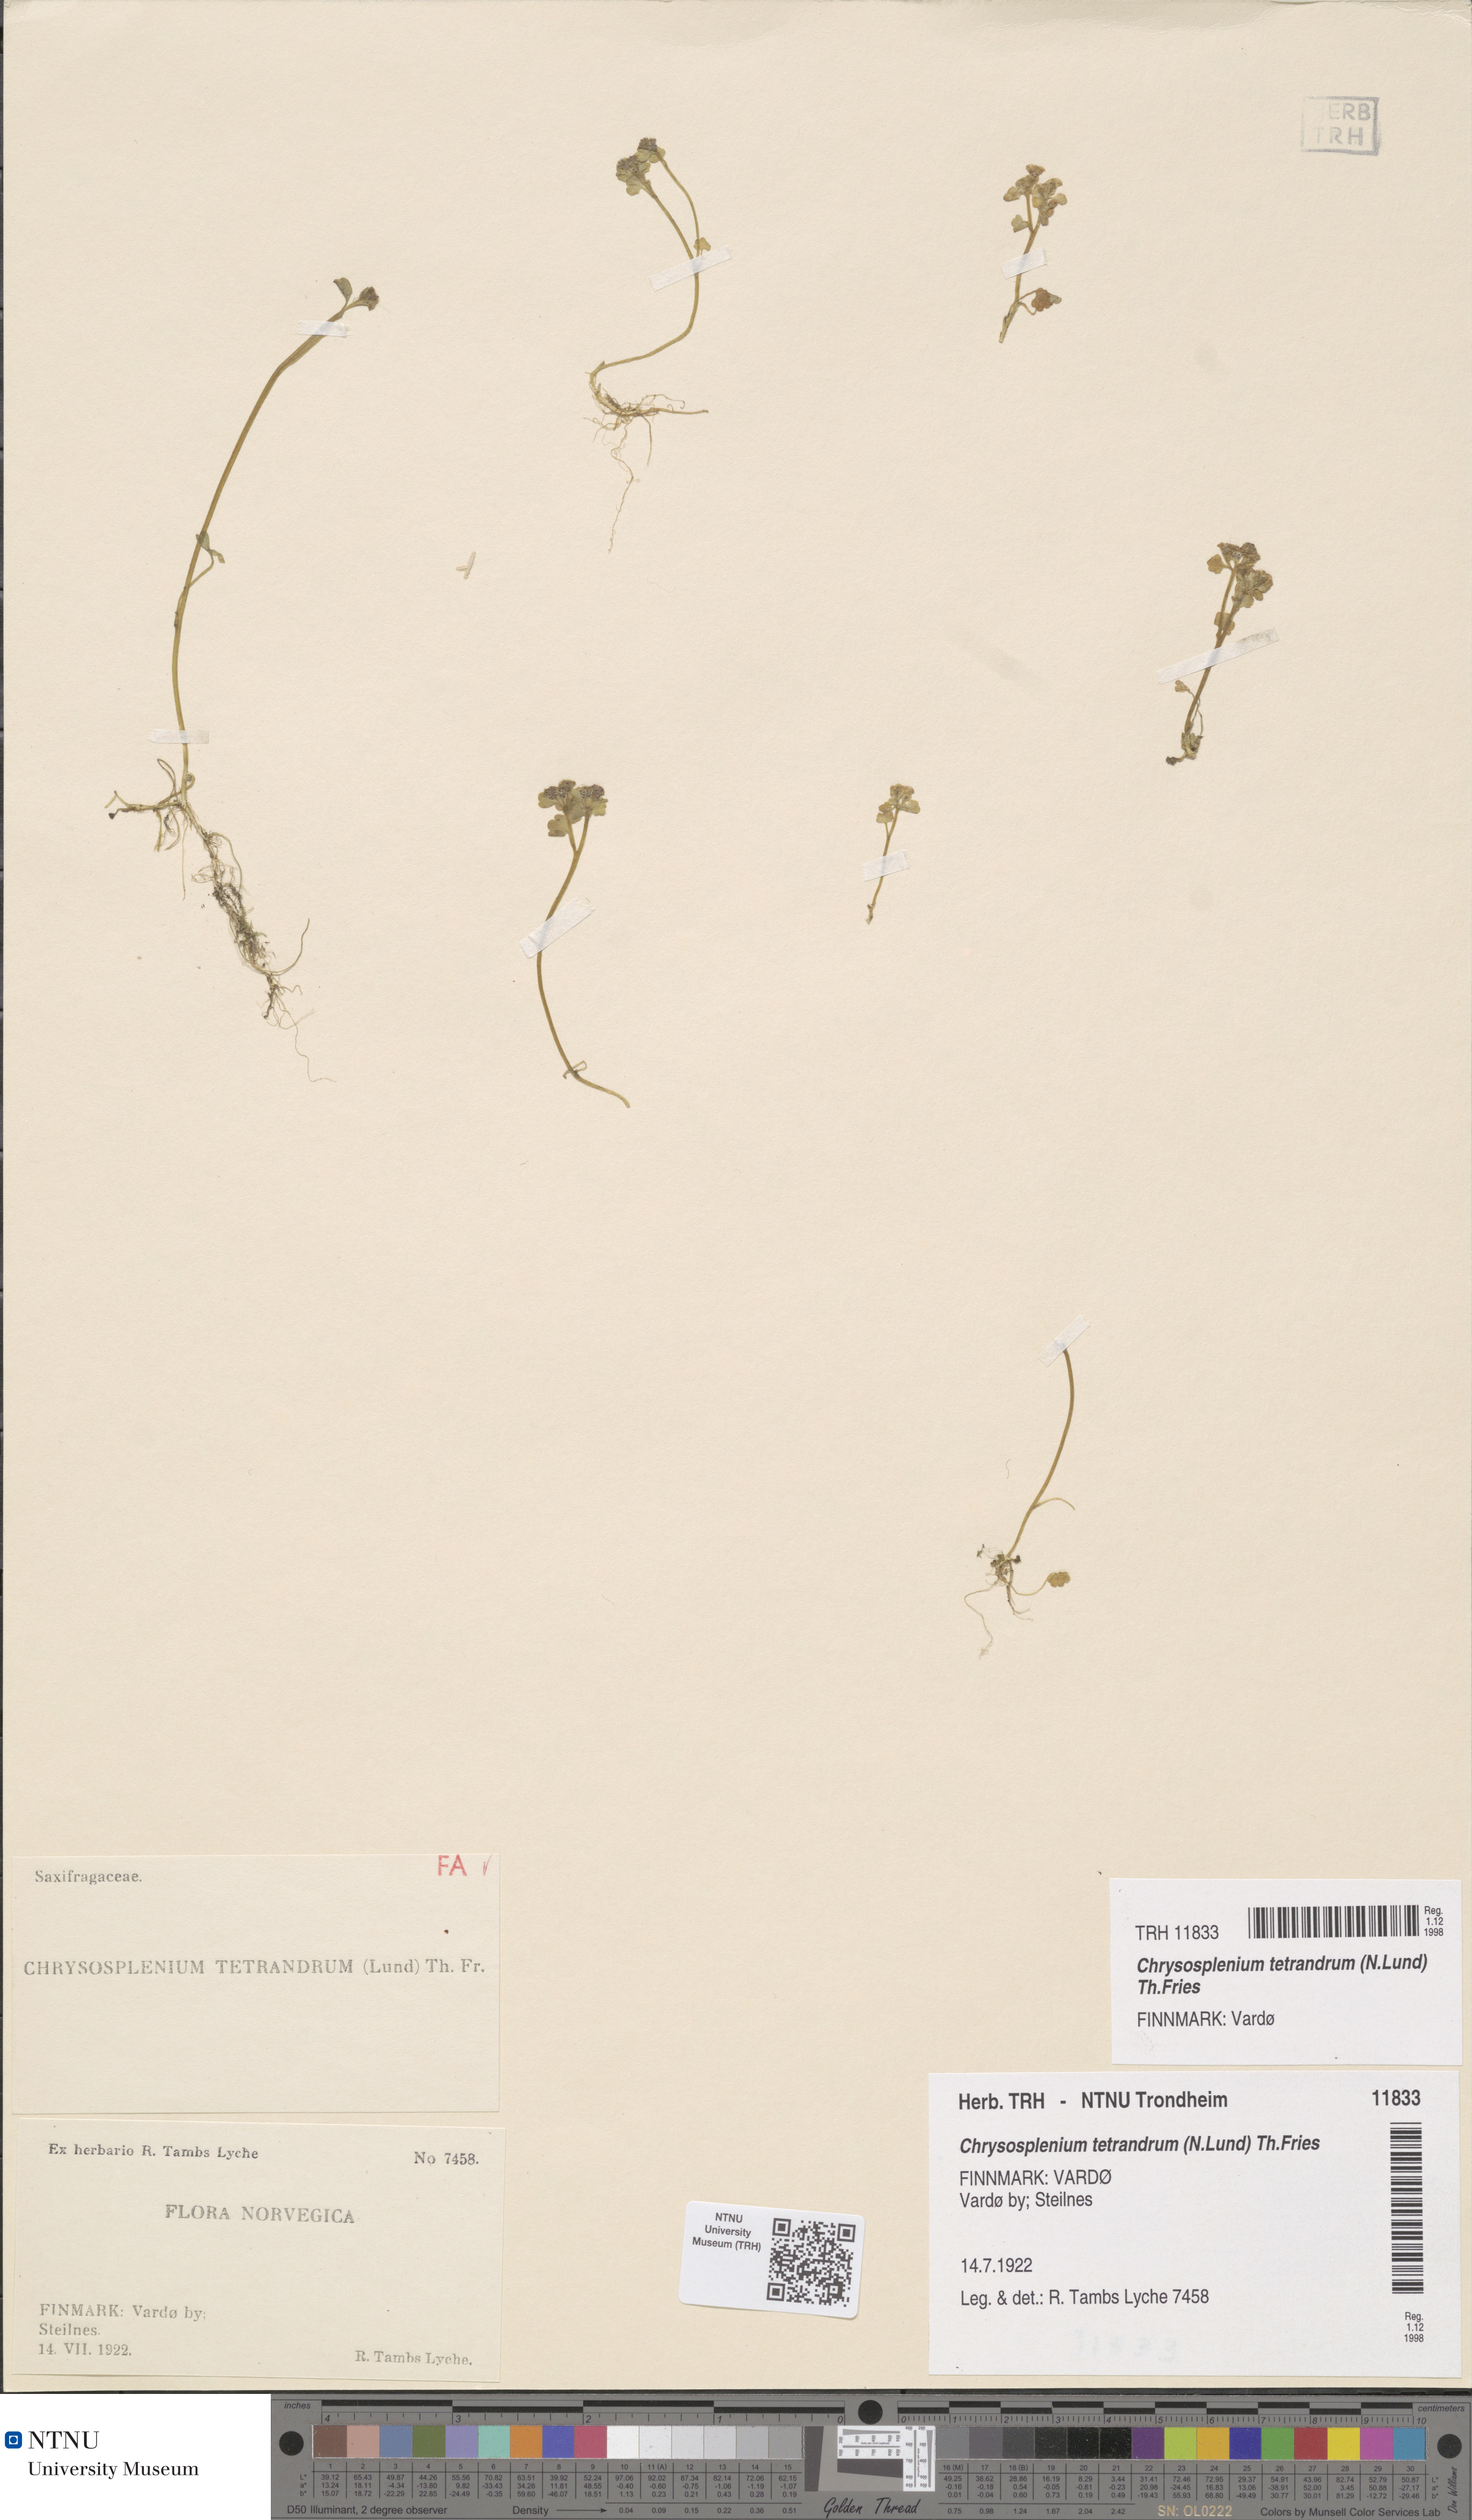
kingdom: Plantae
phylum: Tracheophyta
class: Magnoliopsida
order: Saxifragales
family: Saxifragaceae
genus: Chrysosplenium
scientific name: Chrysosplenium tetrandrum
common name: Green saxifrage
